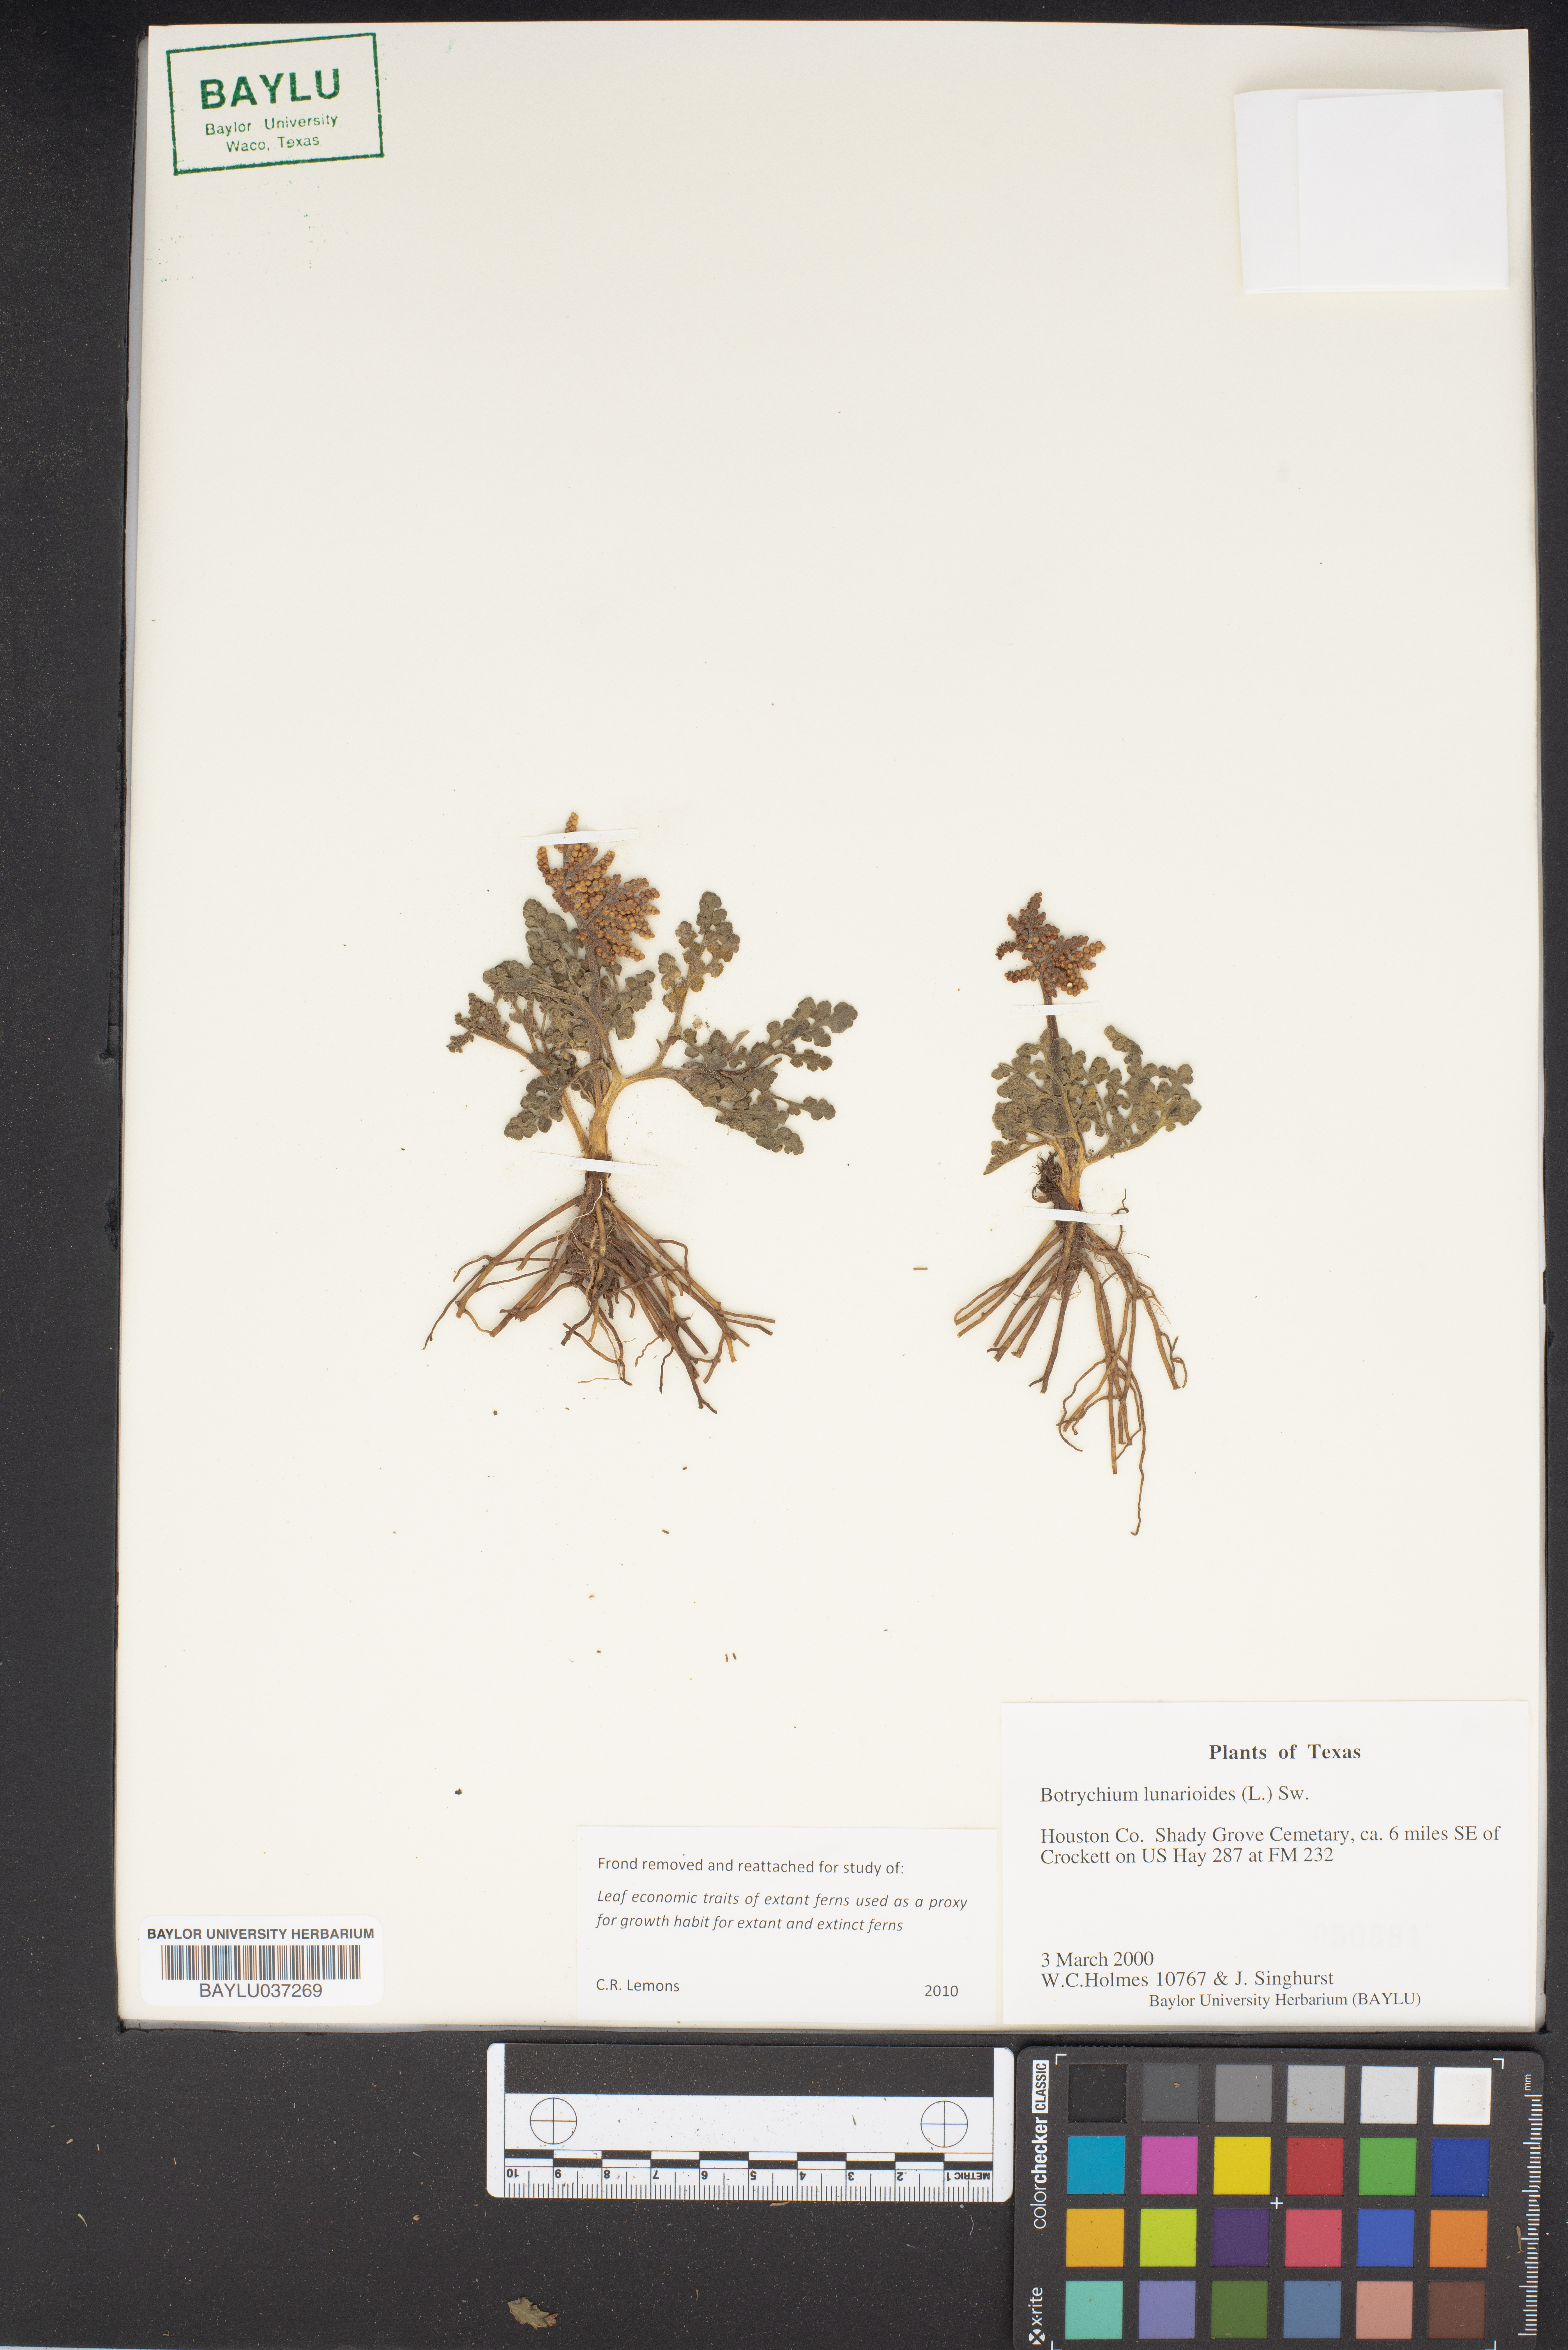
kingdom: Plantae
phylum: Tracheophyta
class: Polypodiopsida
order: Ophioglossales
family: Ophioglossaceae
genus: Sceptridium
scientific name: Sceptridium lunarioides
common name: Prostrate grapefern
